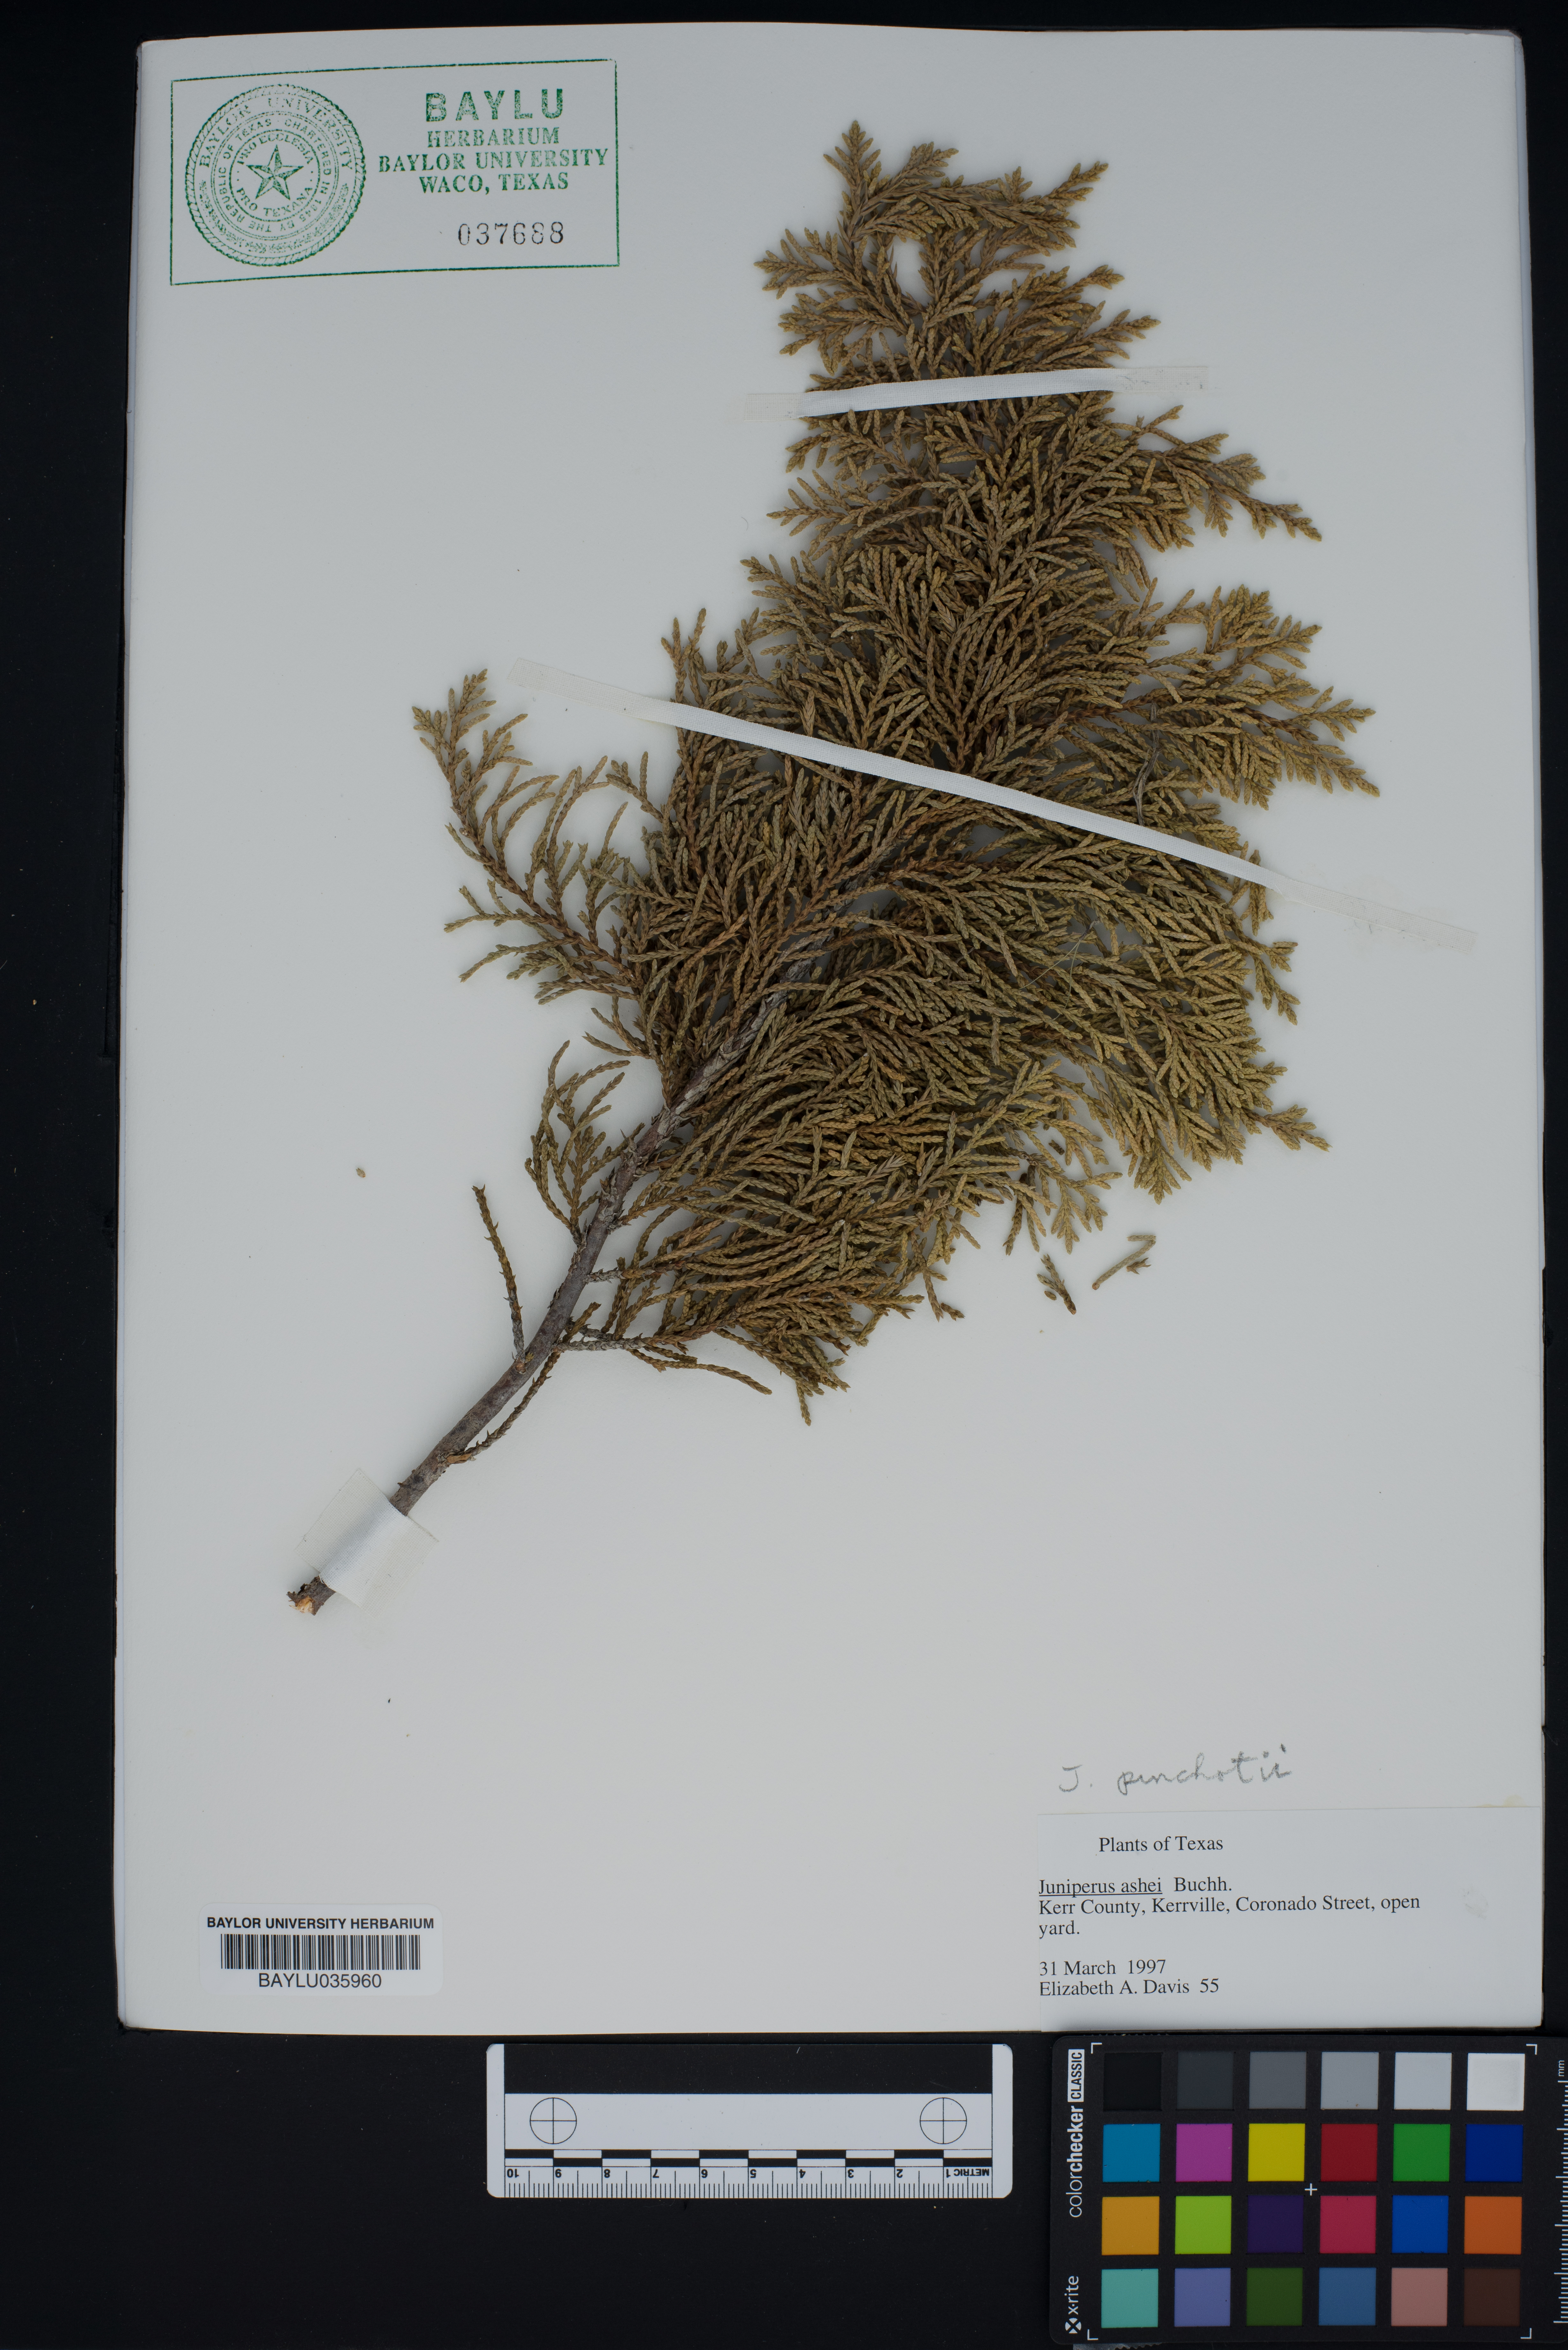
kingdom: Plantae
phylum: Tracheophyta
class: Pinopsida
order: Pinales
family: Cupressaceae
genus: Juniperus
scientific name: Juniperus pinchotii
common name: Pinchot juniper
